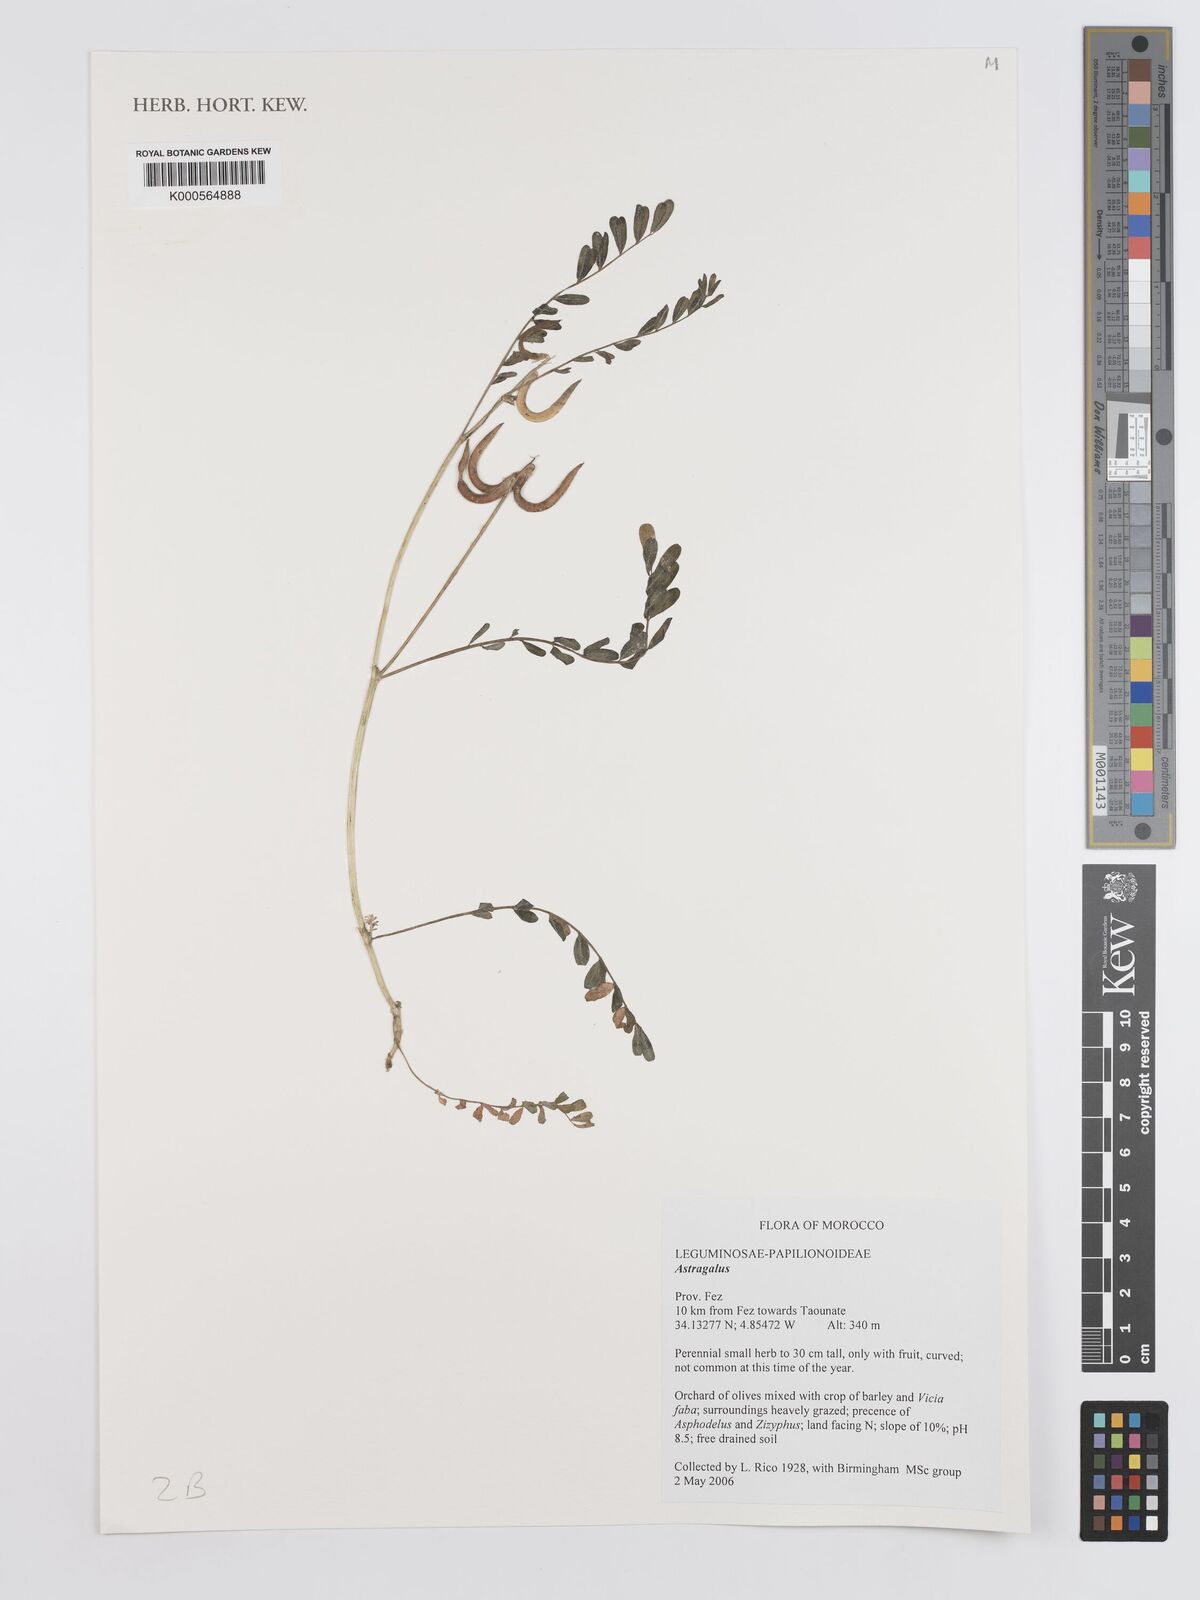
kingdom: Plantae
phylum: Tracheophyta
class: Magnoliopsida
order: Fabales
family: Fabaceae
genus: Astragalus
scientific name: Astragalus
